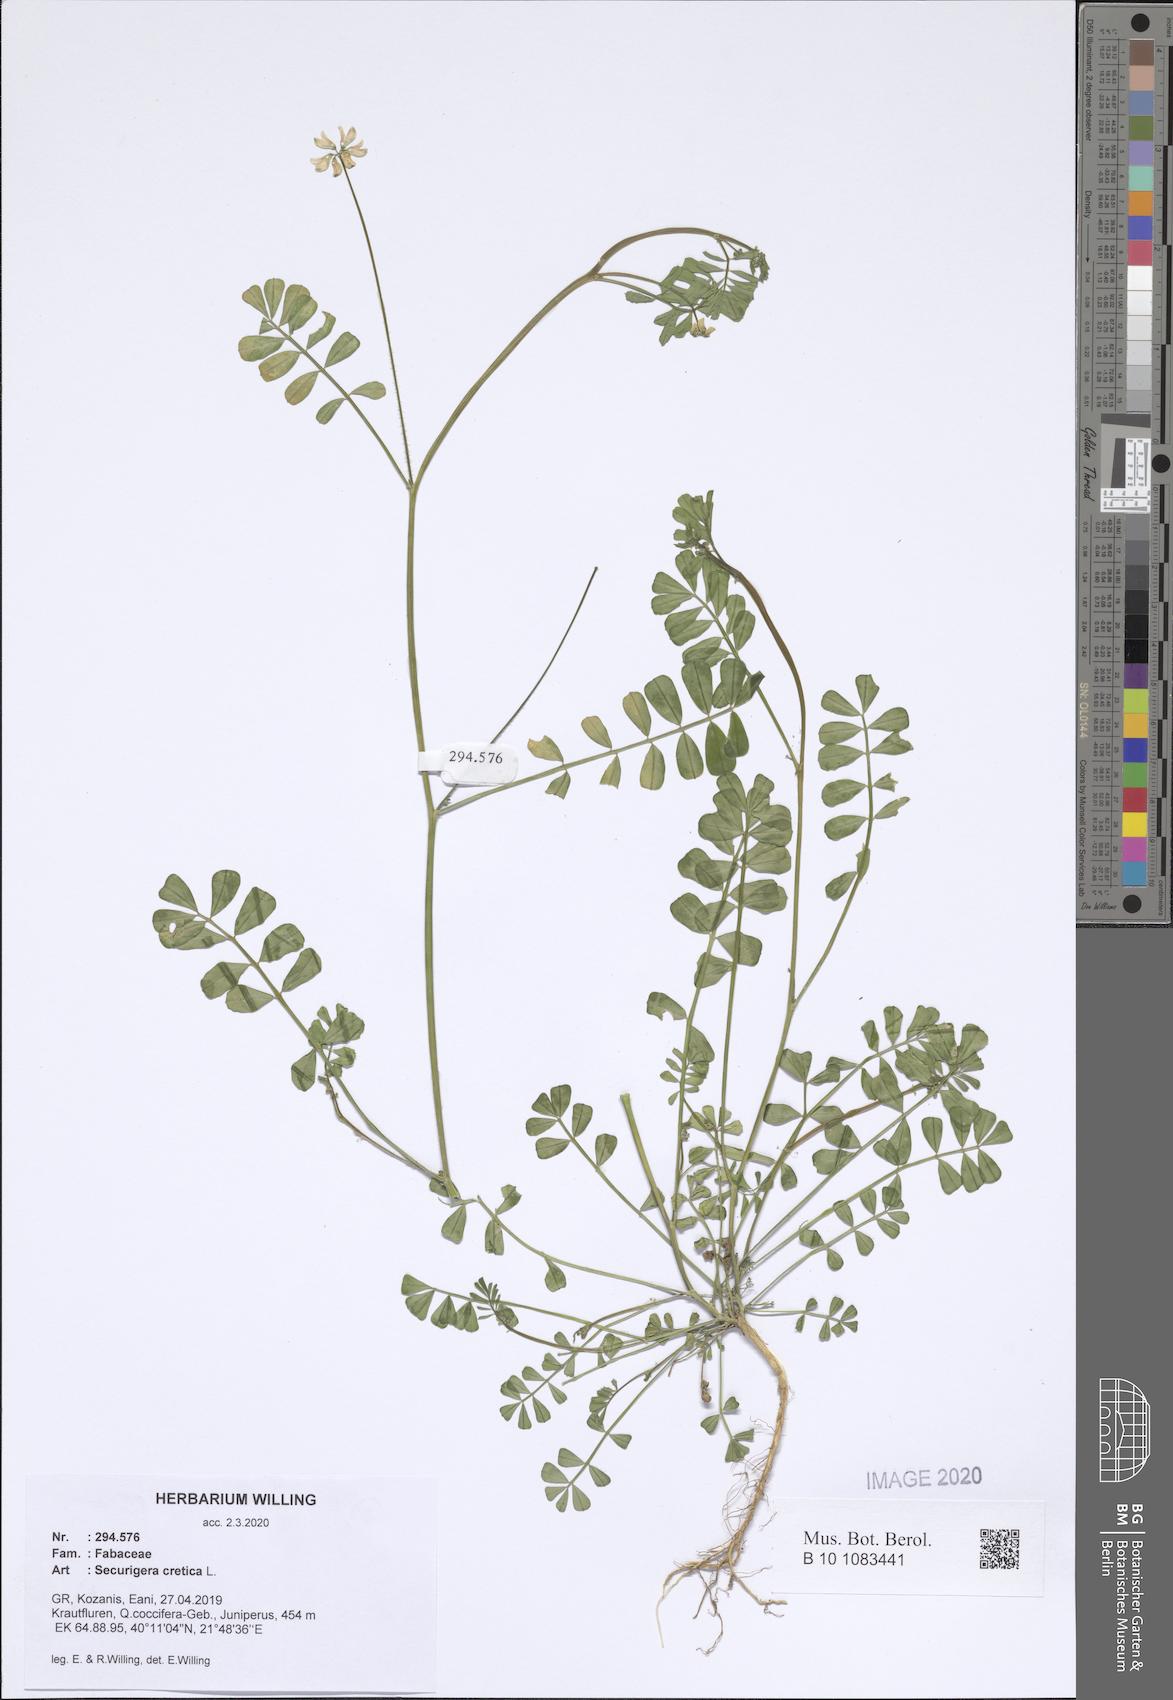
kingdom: Plantae
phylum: Tracheophyta
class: Magnoliopsida
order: Fabales
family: Fabaceae
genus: Coronilla
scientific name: Coronilla cretica
